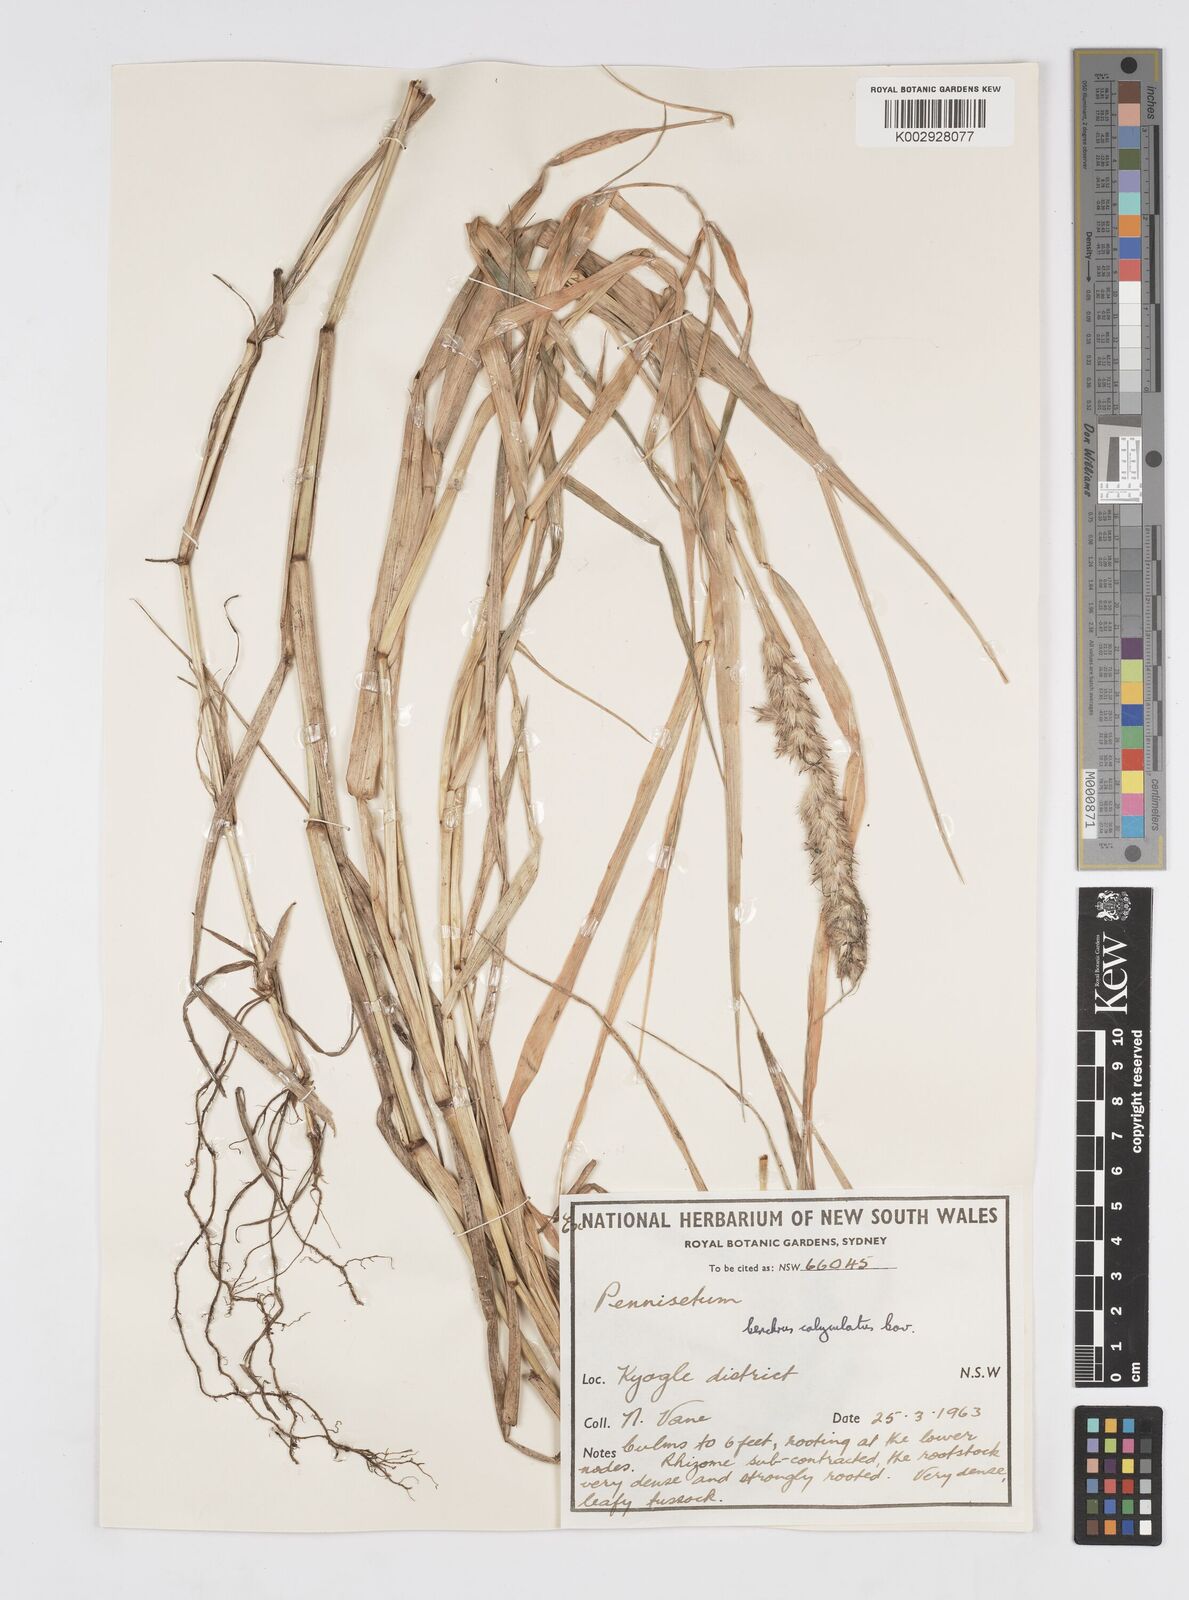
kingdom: Plantae
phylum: Tracheophyta
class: Liliopsida
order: Poales
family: Poaceae
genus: Cenchrus
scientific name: Cenchrus caliculatus
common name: Large bur grass
